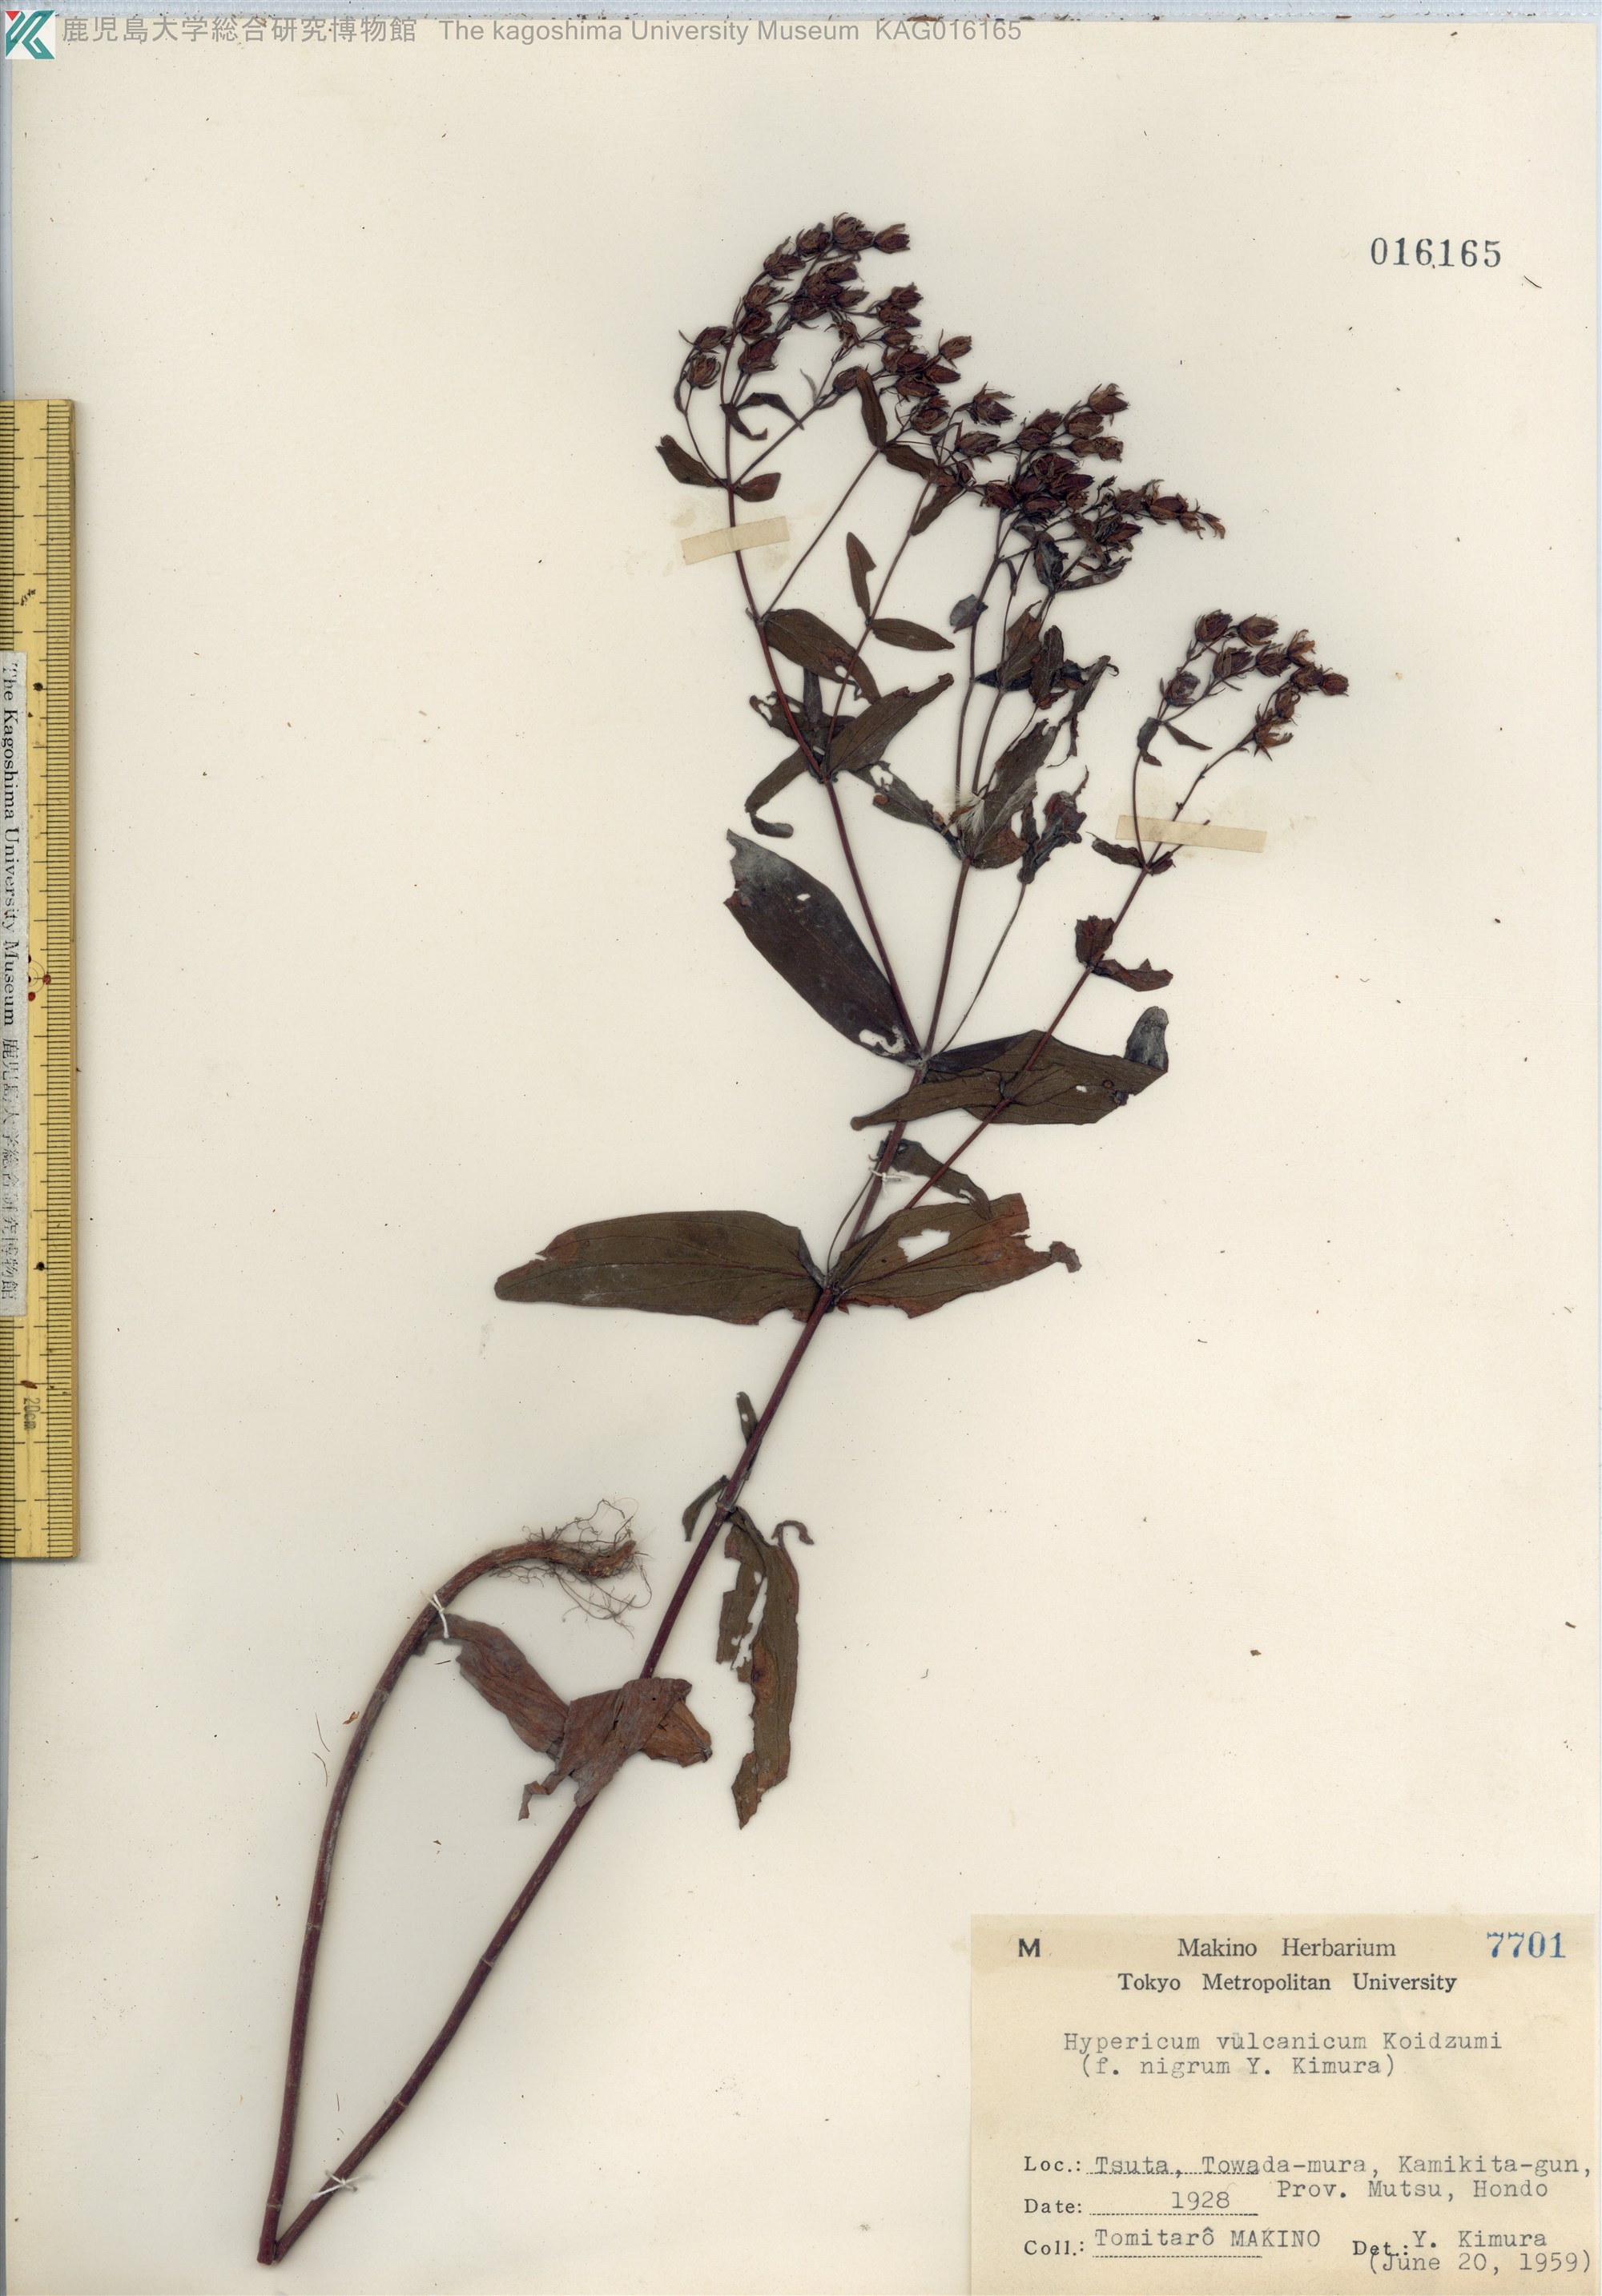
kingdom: Plantae
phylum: Tracheophyta
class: Magnoliopsida
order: Malpighiales
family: Hypericaceae
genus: Hypericum
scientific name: Hypericum vulcanicum
